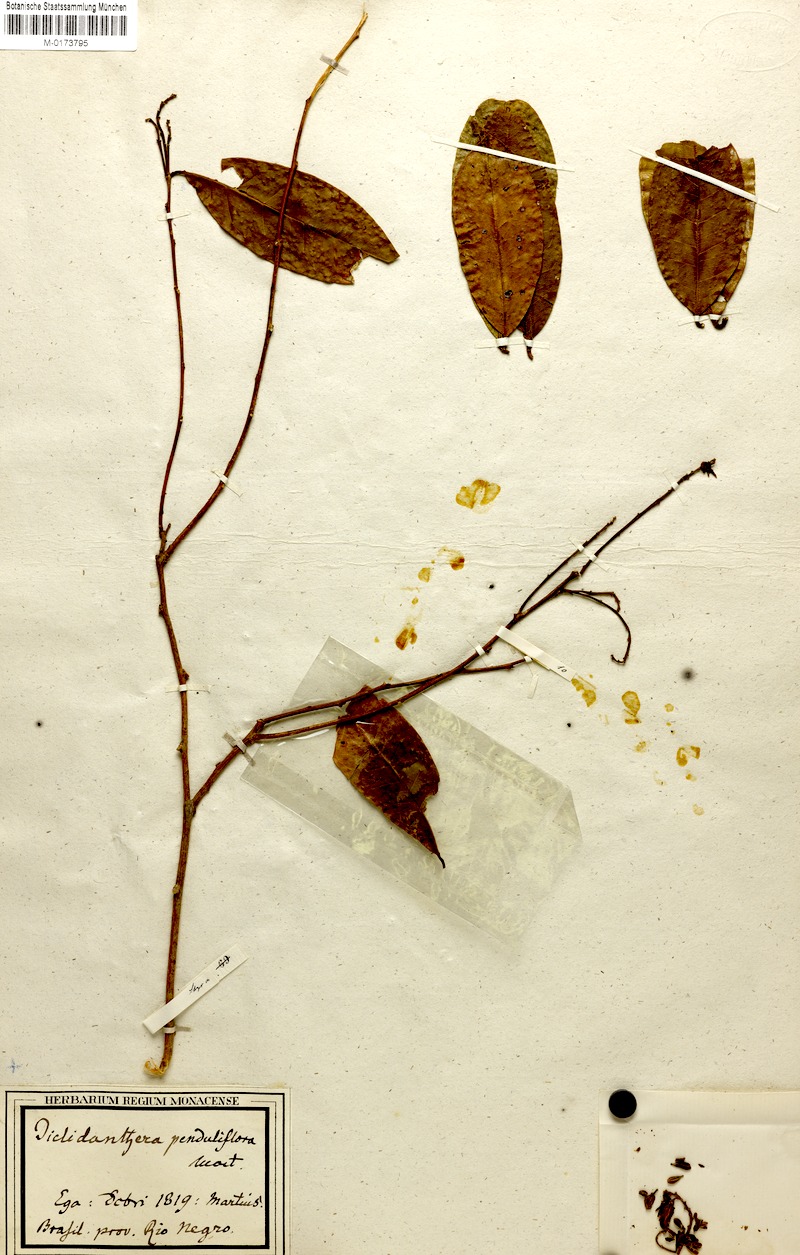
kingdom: Plantae
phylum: Tracheophyta
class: Magnoliopsida
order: Fabales
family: Polygalaceae
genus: Diclidanthera
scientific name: Diclidanthera penduliflora
